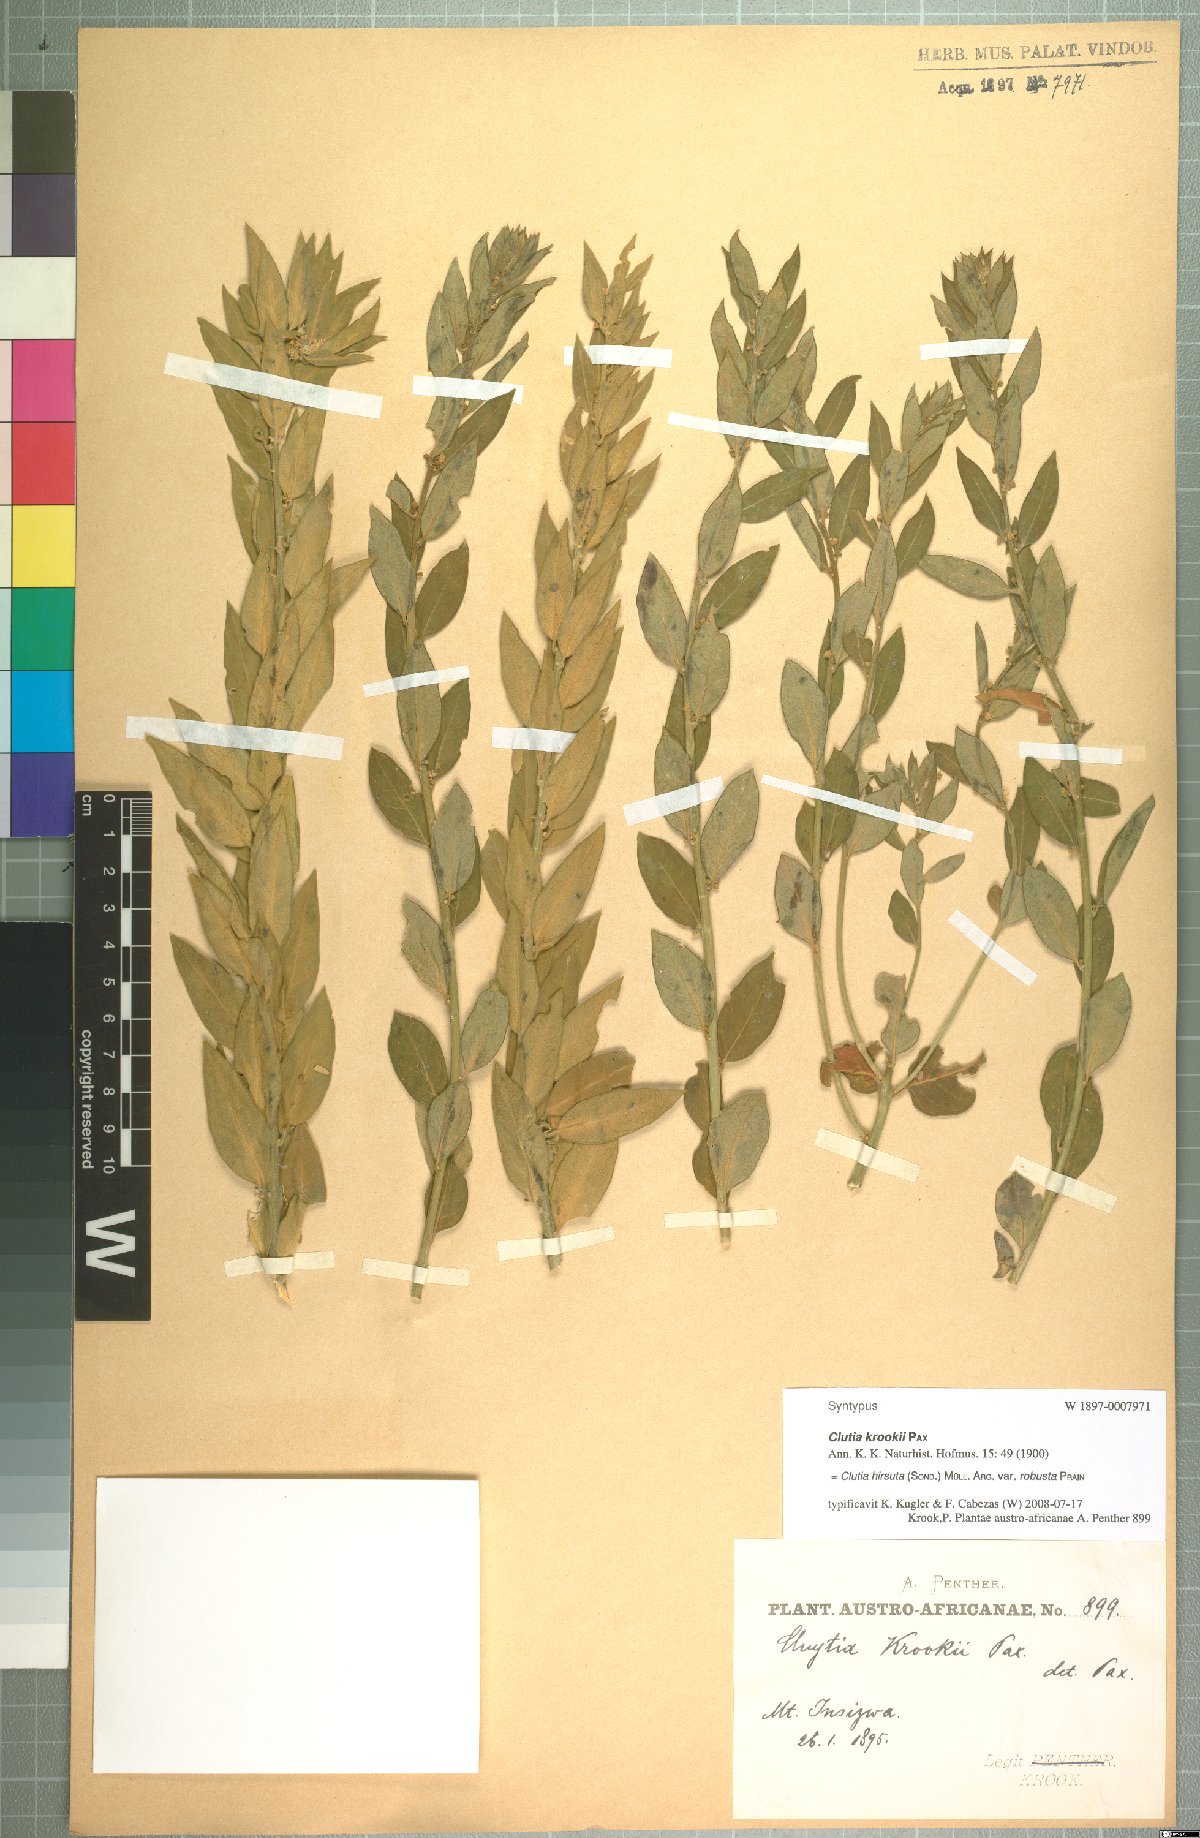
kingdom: Plantae
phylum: Tracheophyta
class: Magnoliopsida
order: Malpighiales
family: Peraceae
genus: Clutia
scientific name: Clutia hirsuta
